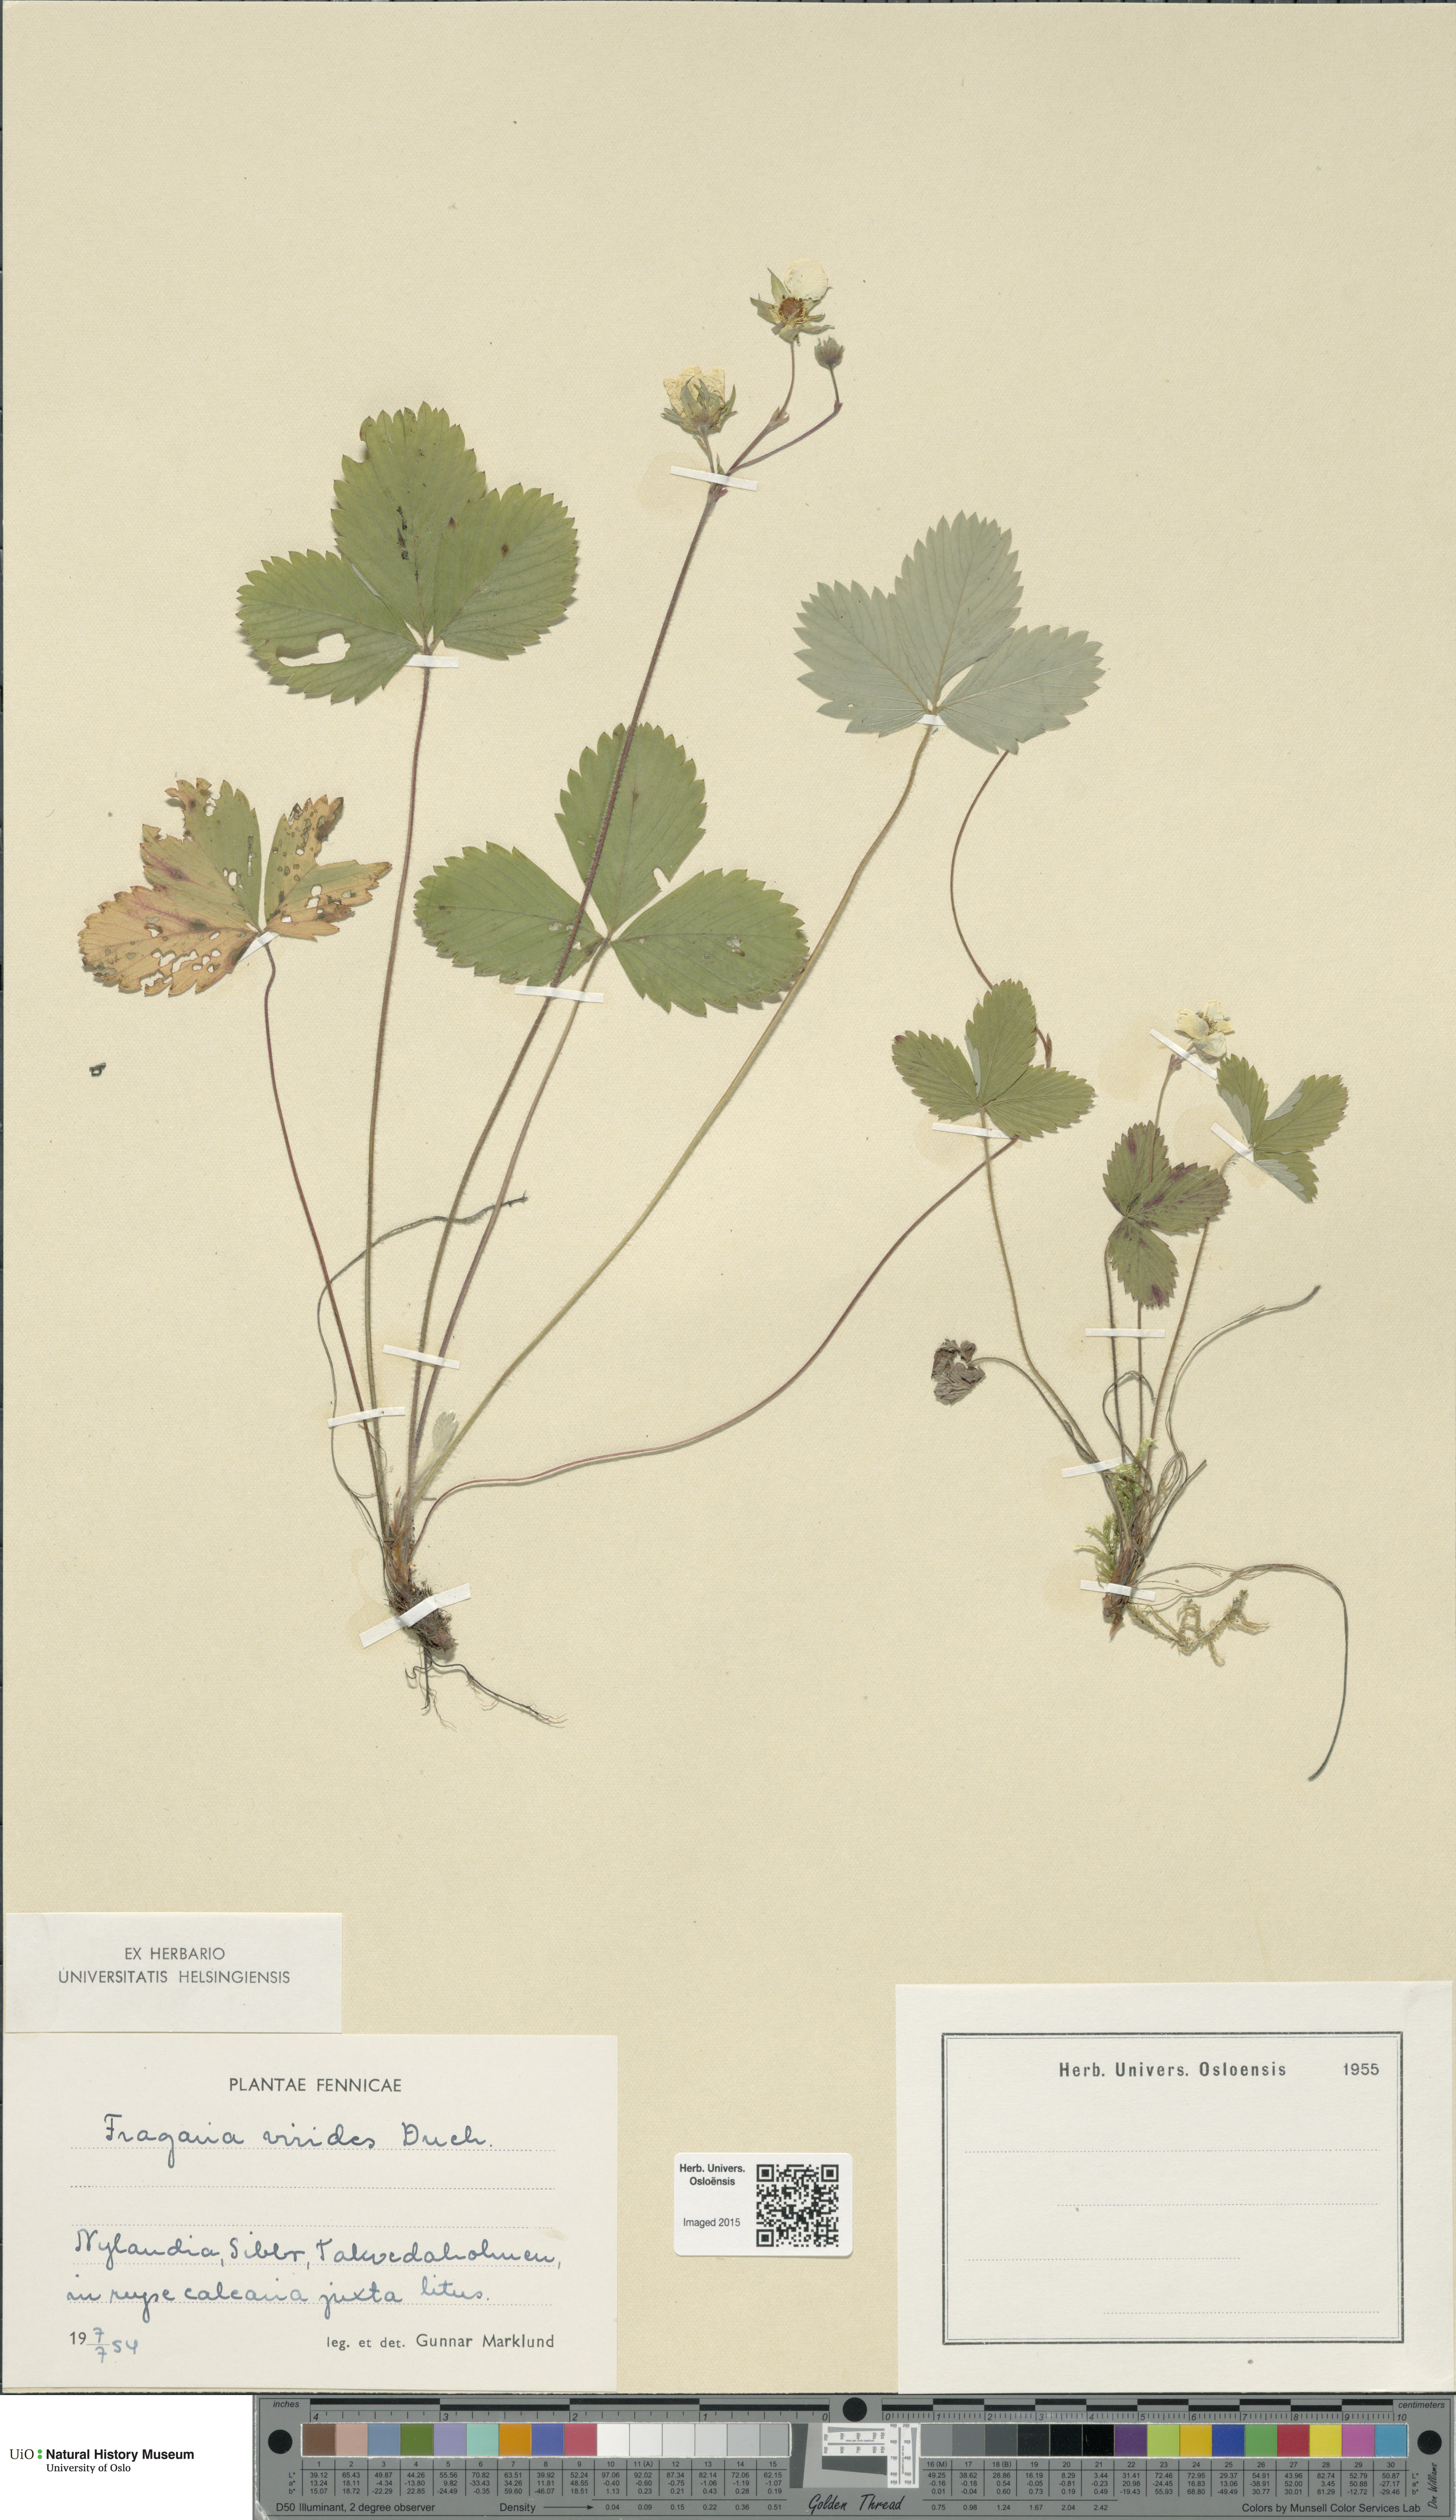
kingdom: Plantae
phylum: Tracheophyta
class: Magnoliopsida
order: Rosales
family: Rosaceae
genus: Fragaria
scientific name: Fragaria viridis
